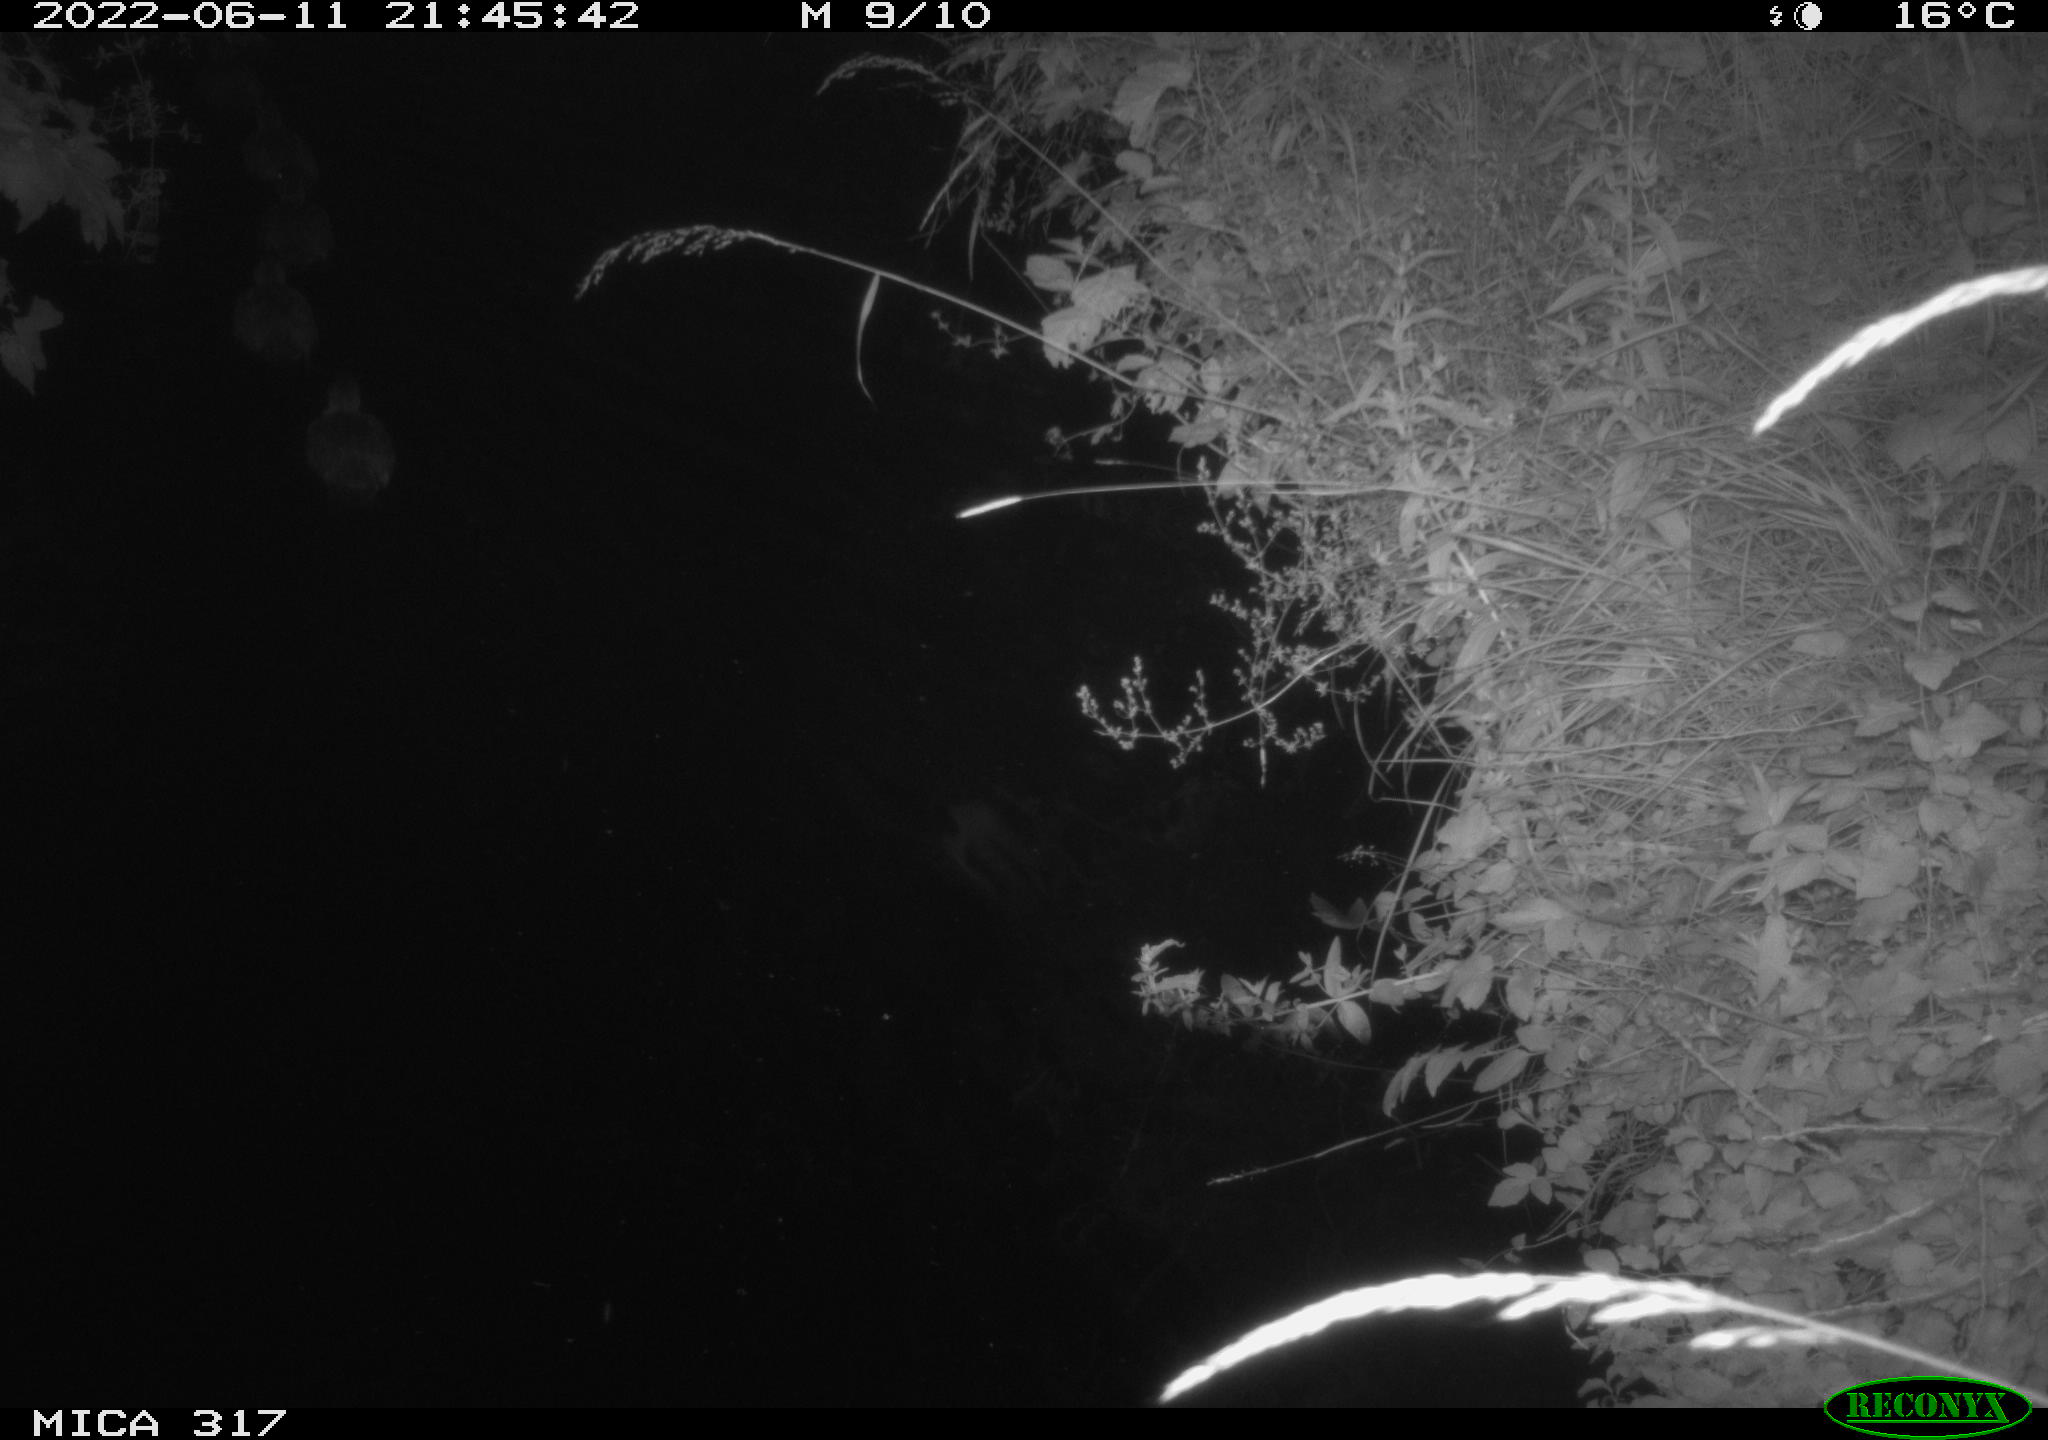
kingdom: Animalia
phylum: Chordata
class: Aves
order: Anseriformes
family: Anatidae
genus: Anas
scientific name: Anas
